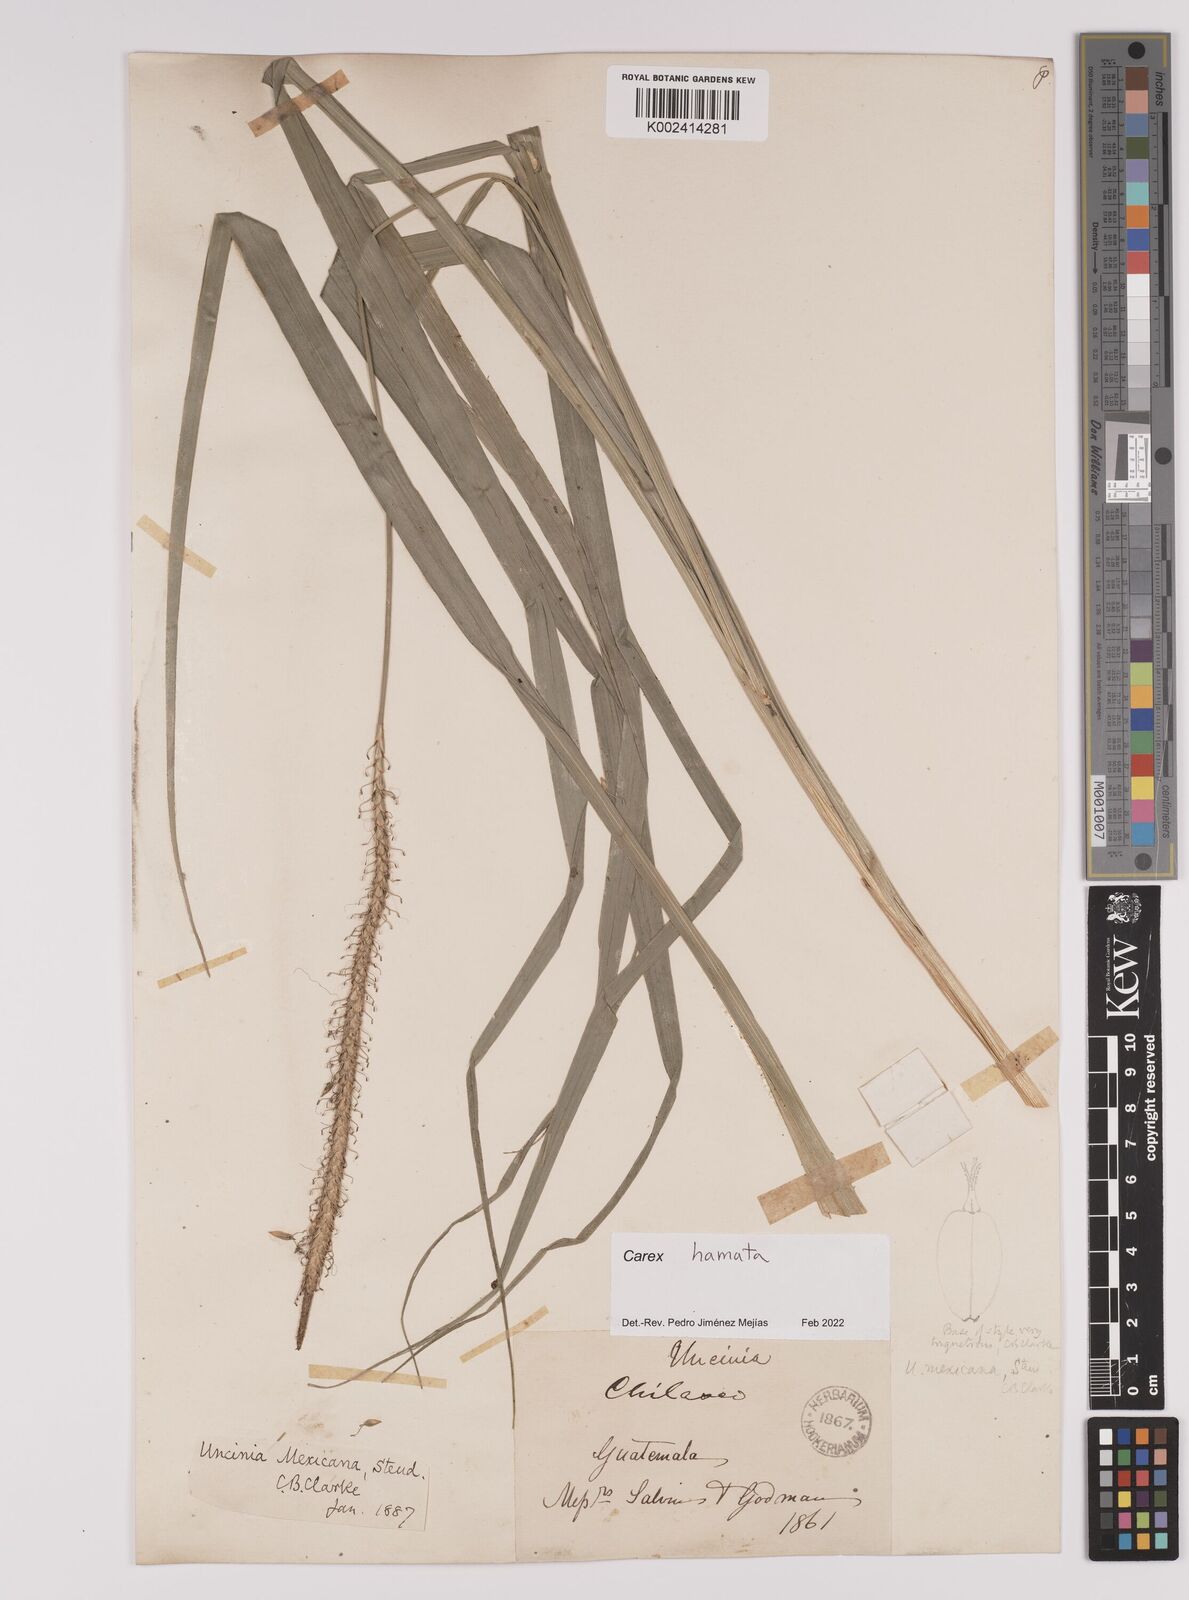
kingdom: Plantae
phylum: Tracheophyta
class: Liliopsida
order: Poales
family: Cyperaceae
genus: Carex
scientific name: Carex hamata
